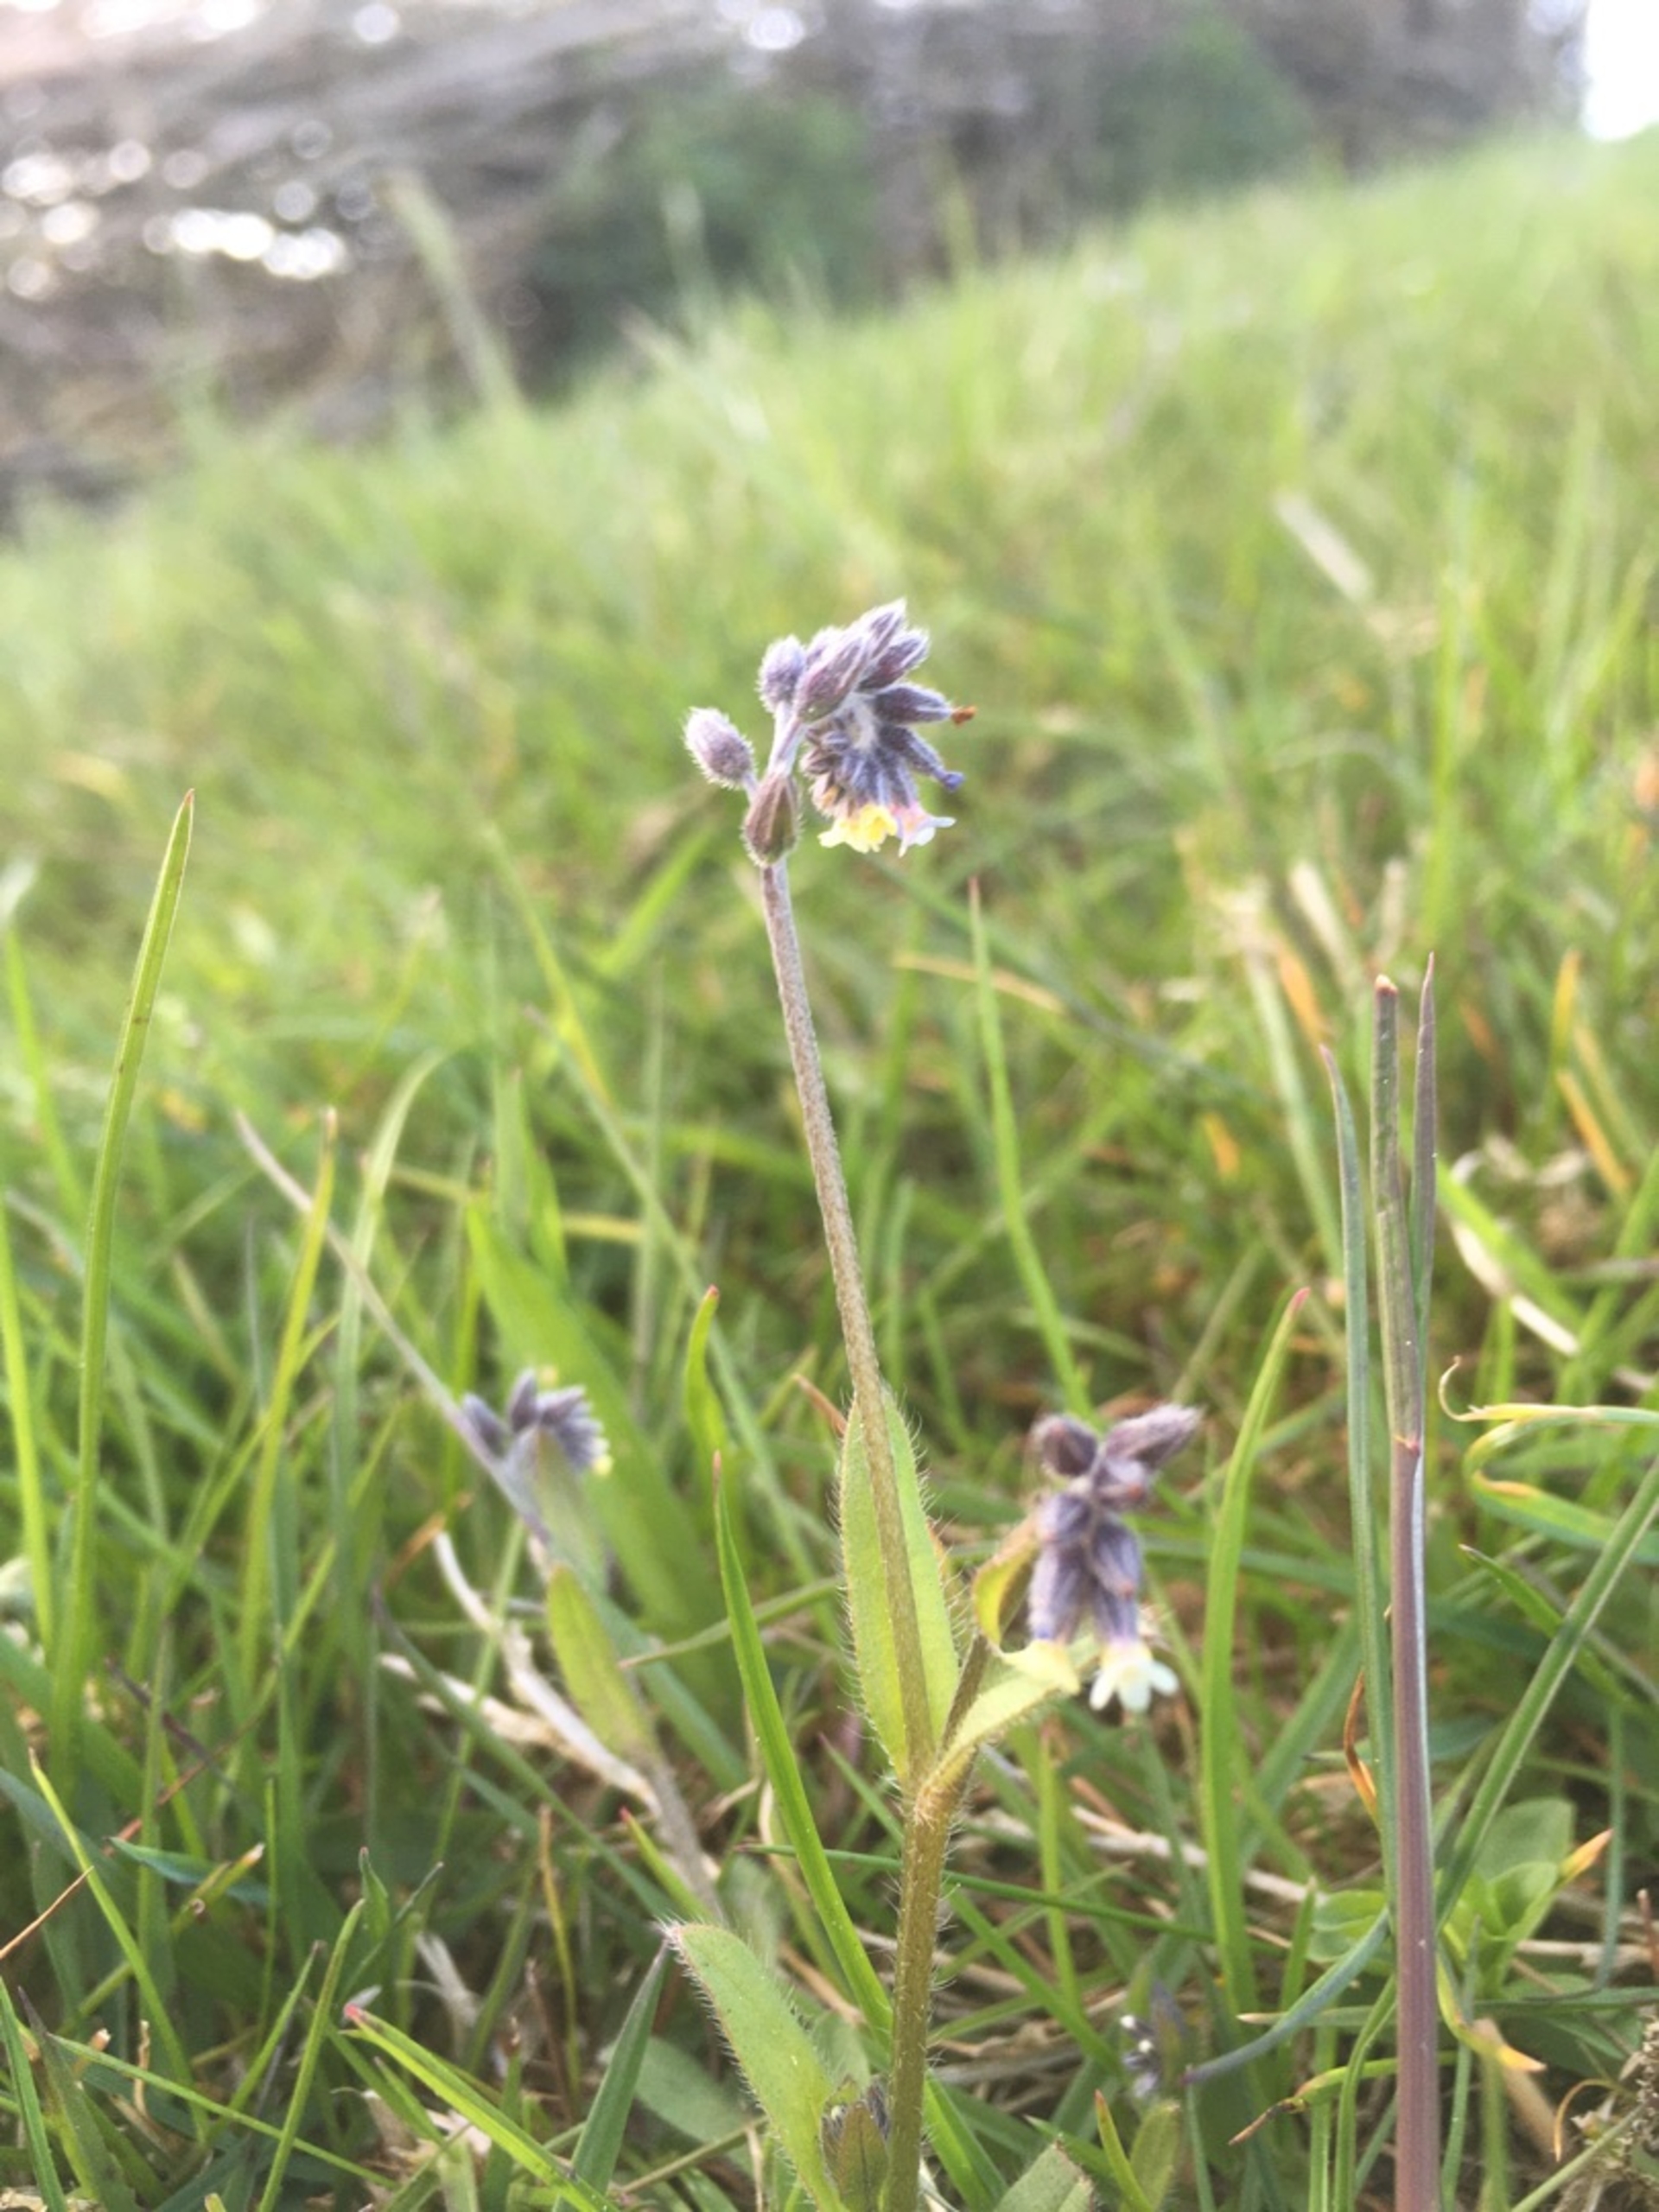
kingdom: Plantae
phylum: Tracheophyta
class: Magnoliopsida
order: Boraginales
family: Boraginaceae
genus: Myosotis
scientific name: Myosotis discolor
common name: Forskelligfarvet forglemmigej
